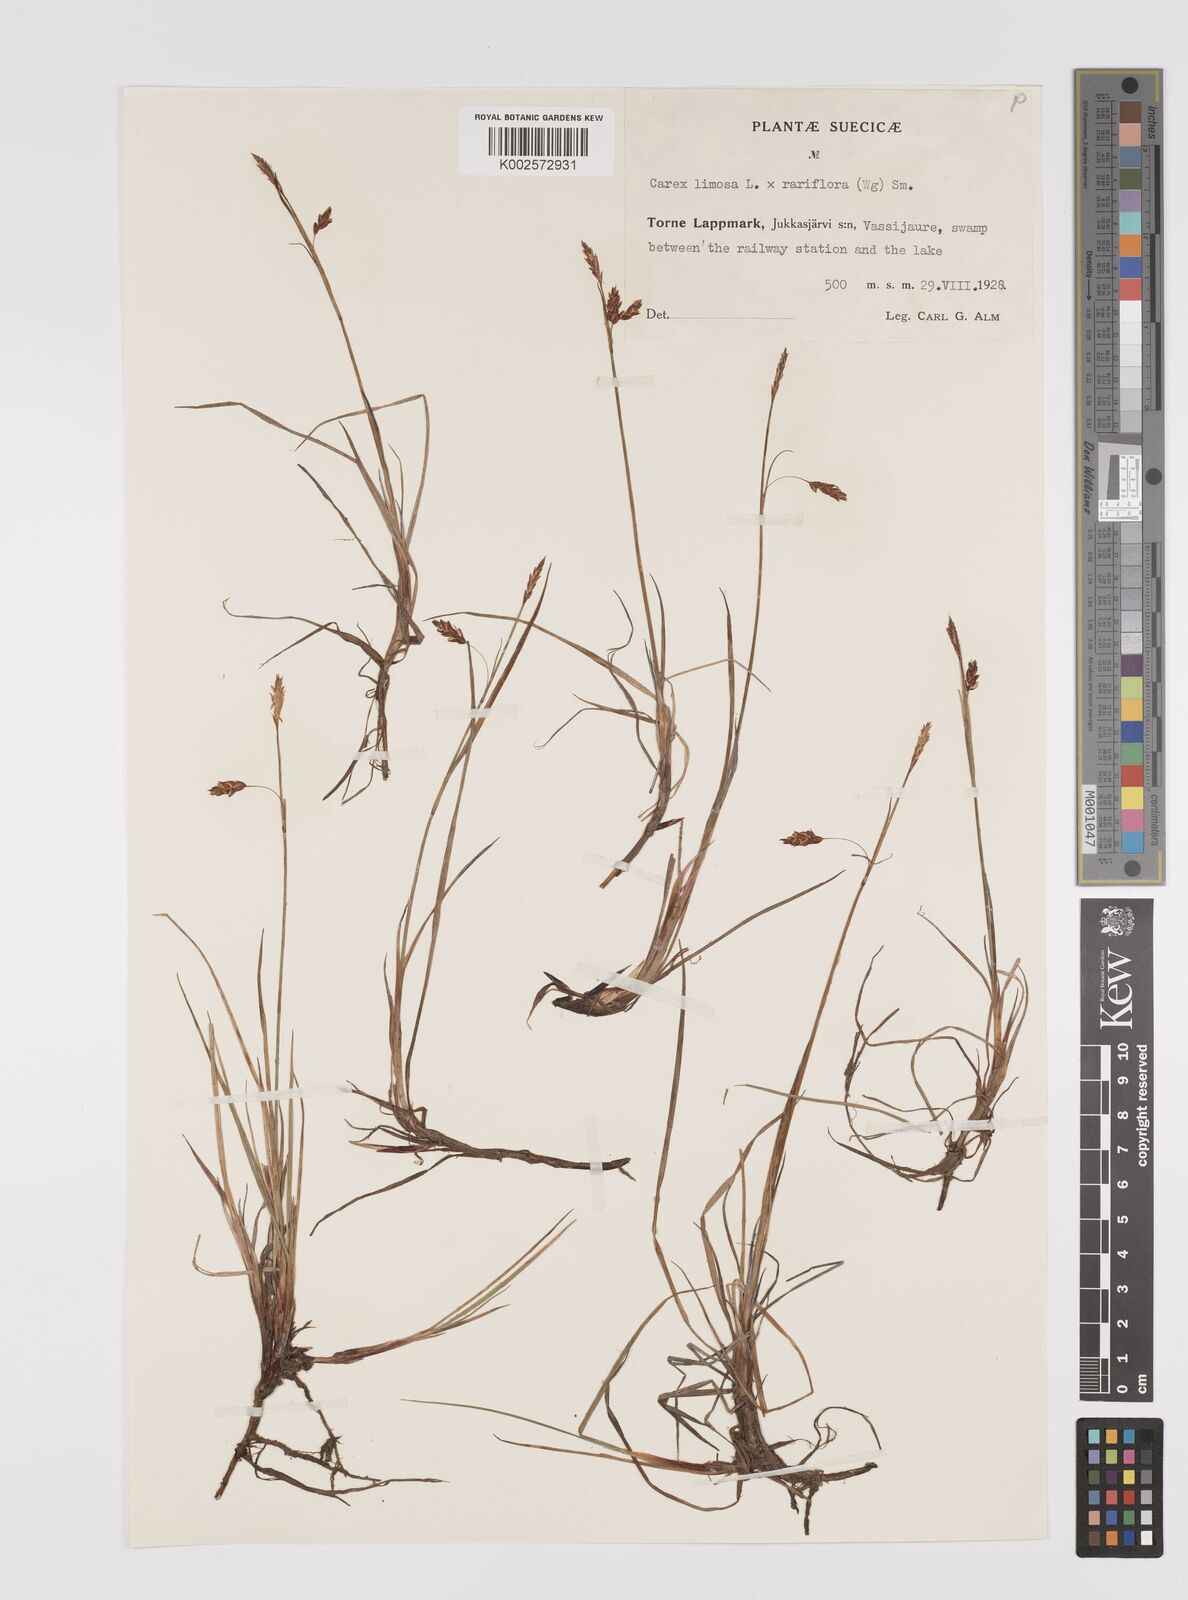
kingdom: Plantae
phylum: Tracheophyta
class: Liliopsida
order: Poales
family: Cyperaceae
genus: Carex
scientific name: Carex rariflora
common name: Loose-flowered alpine sedge
